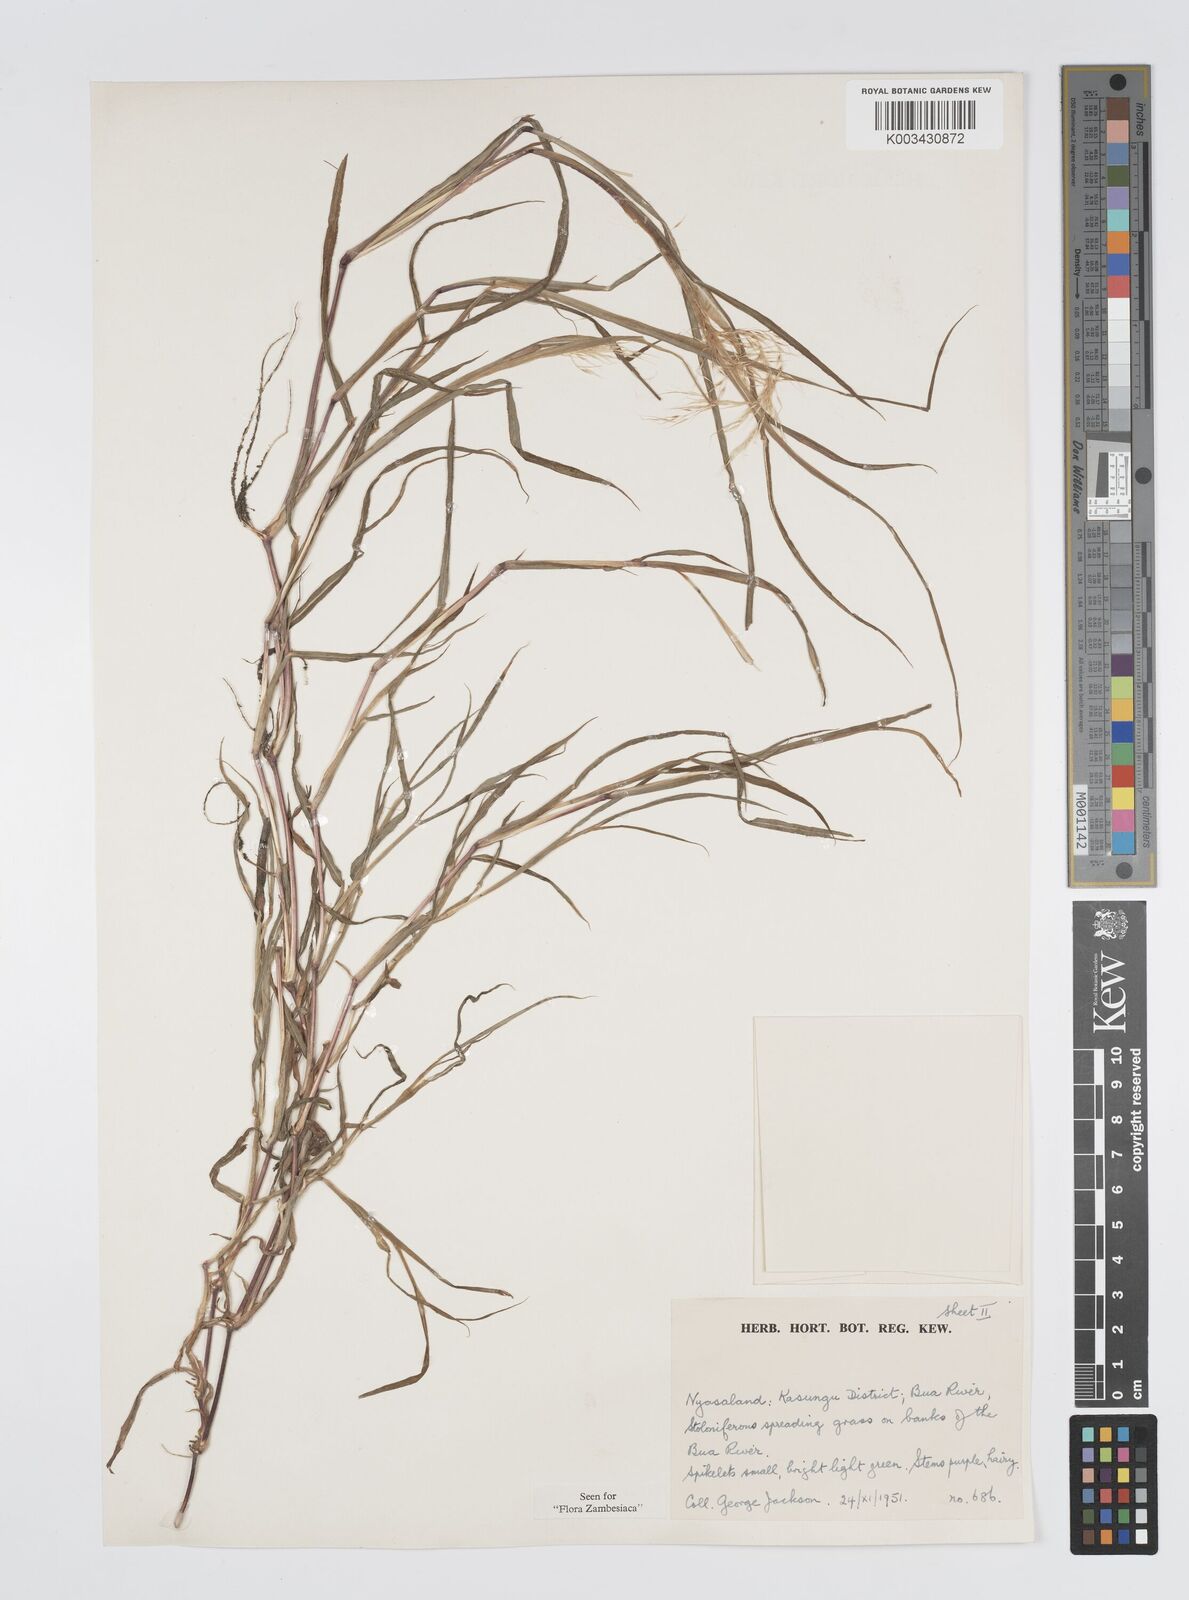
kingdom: Plantae
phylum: Tracheophyta
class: Liliopsida
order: Poales
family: Poaceae
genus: Digitaria
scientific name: Digitaria remotigluma
